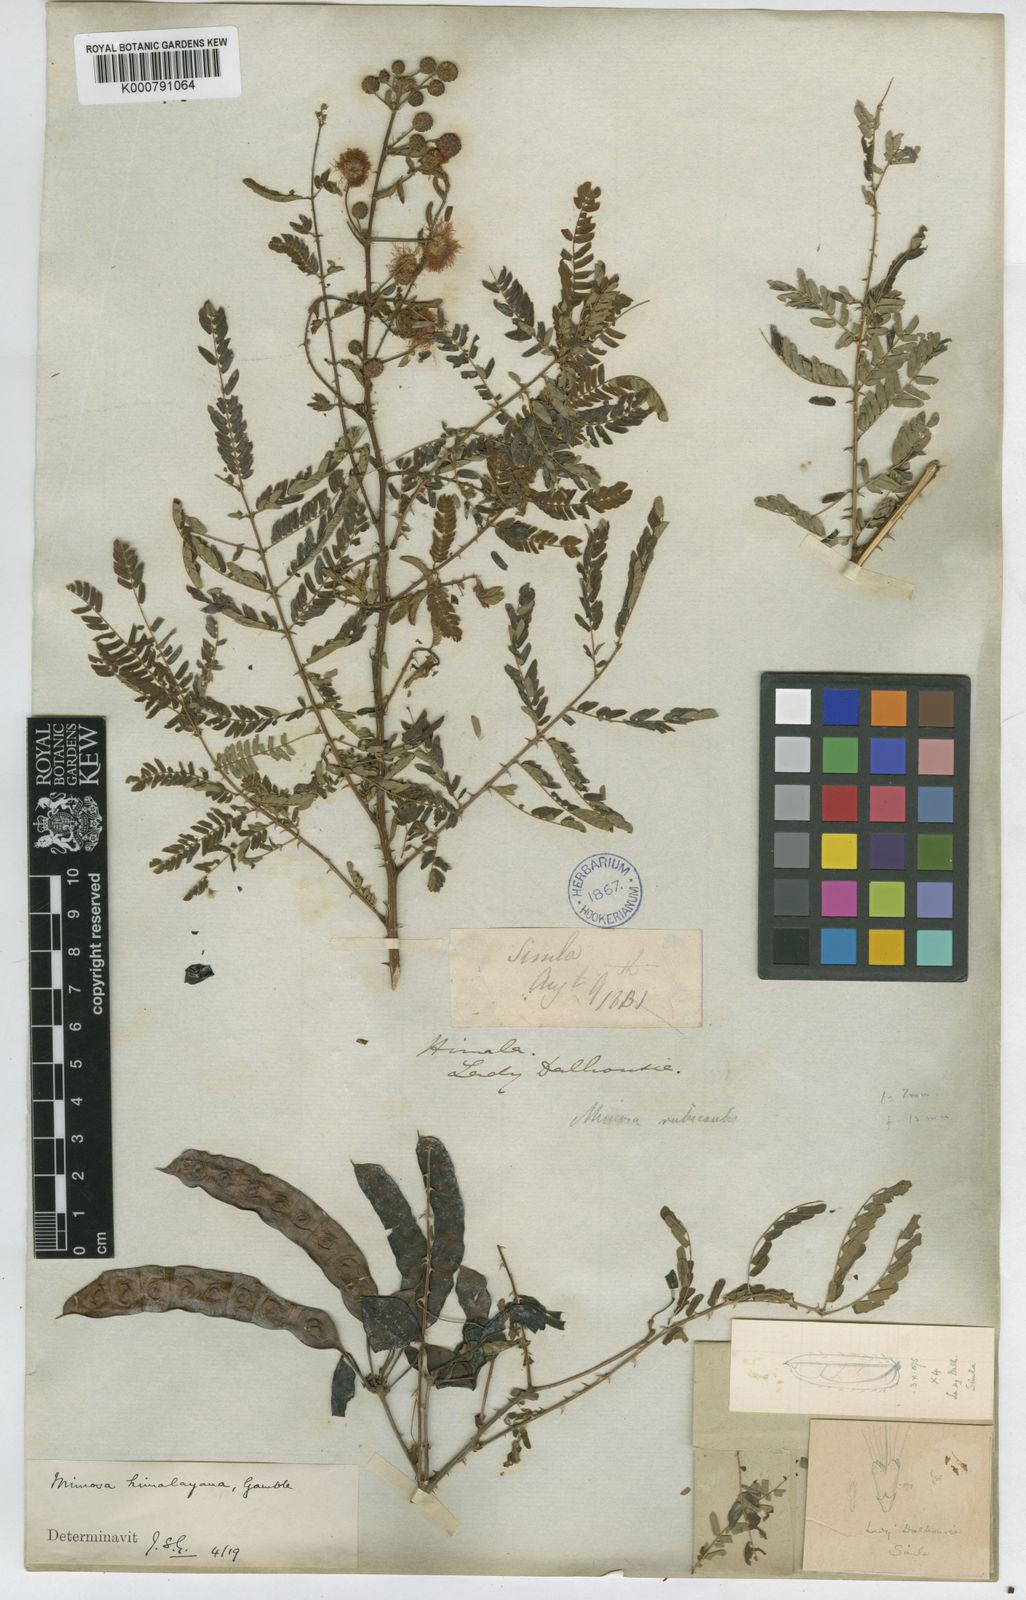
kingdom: Plantae
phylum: Tracheophyta
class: Magnoliopsida
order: Fabales
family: Fabaceae
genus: Mimosa
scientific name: Mimosa rubicaulis
